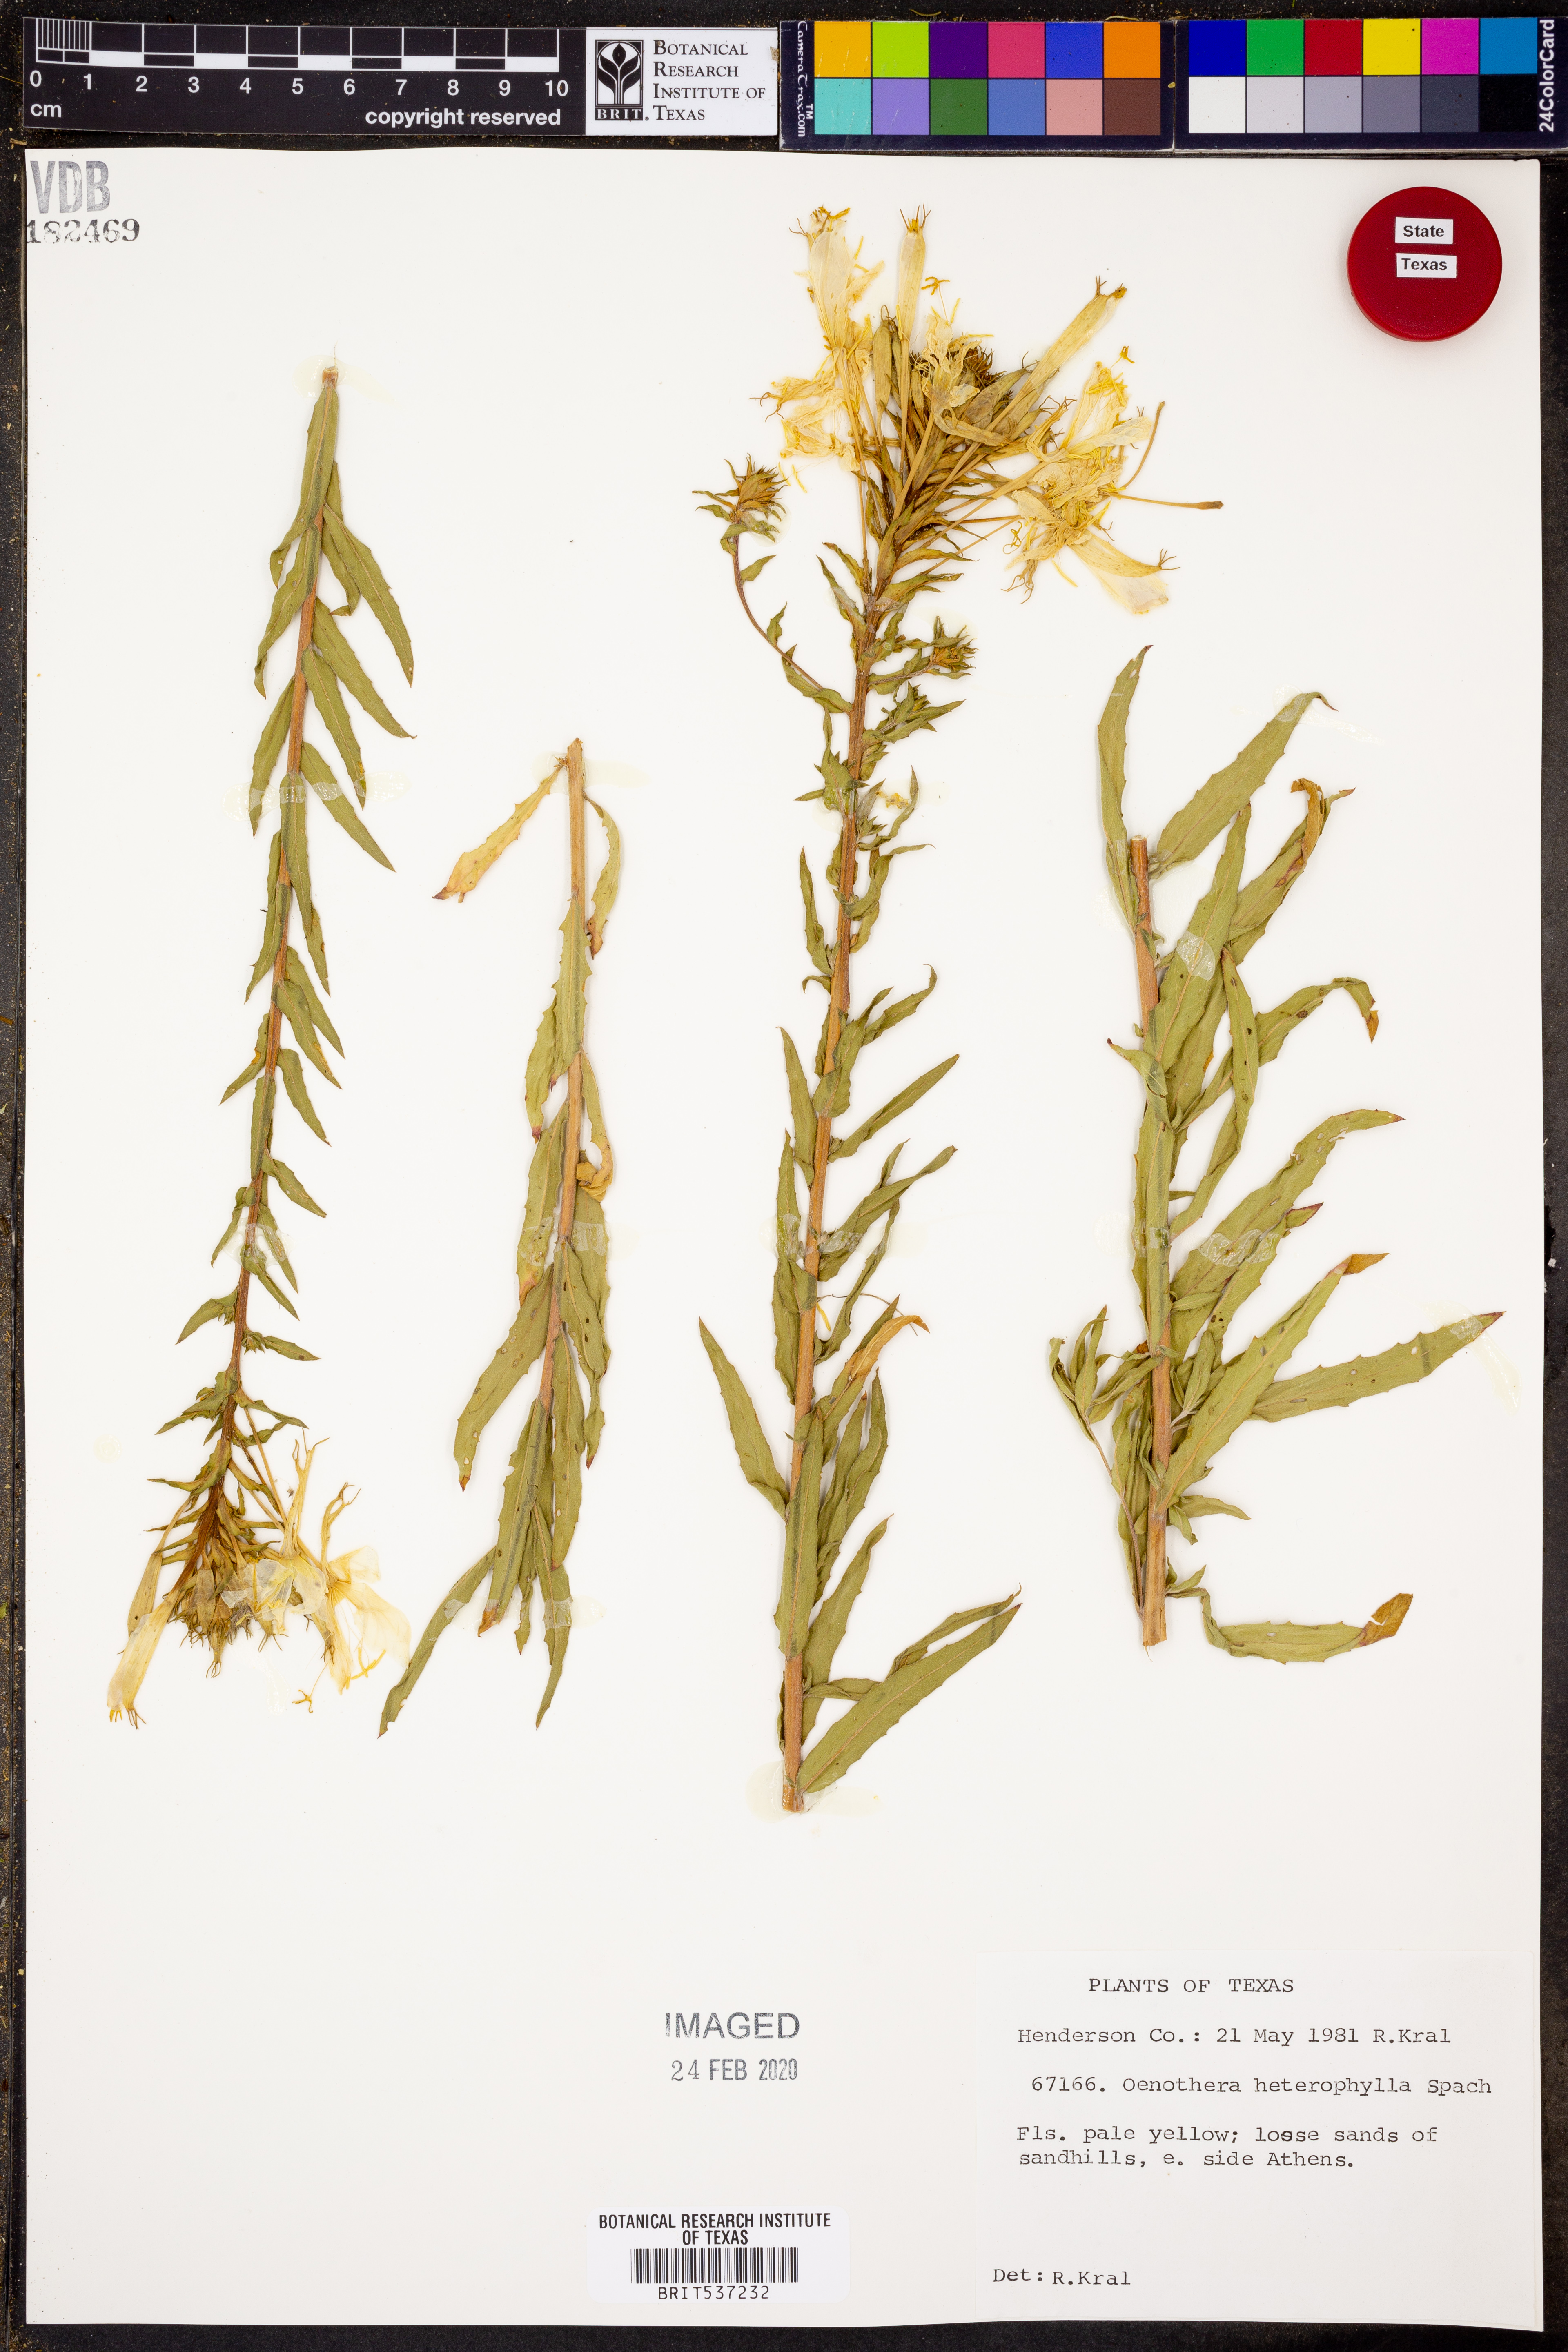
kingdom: Plantae
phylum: Tracheophyta
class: Magnoliopsida
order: Myrtales
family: Onagraceae
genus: Camissonia
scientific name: Camissonia dentata
